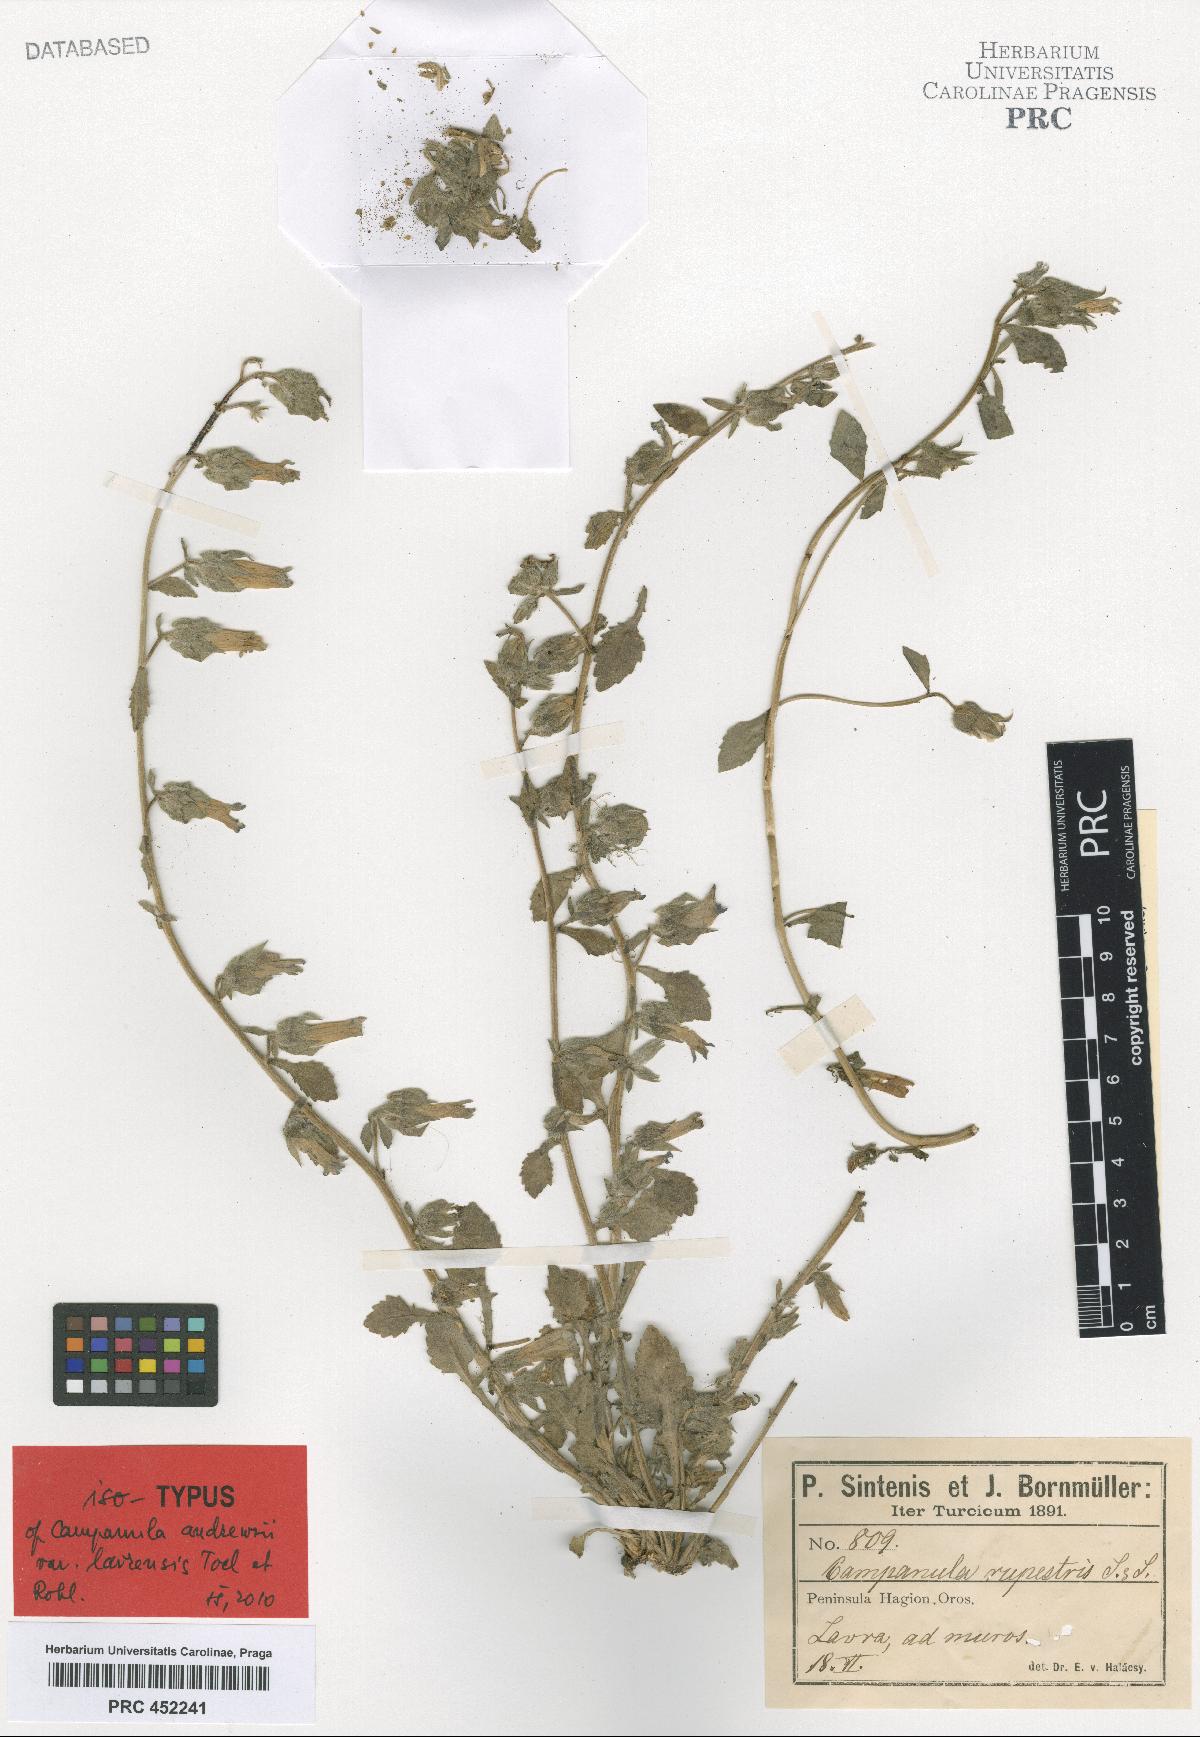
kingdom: Plantae
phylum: Tracheophyta
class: Magnoliopsida
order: Asterales
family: Campanulaceae
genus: Campanula
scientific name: Campanula rupestris
